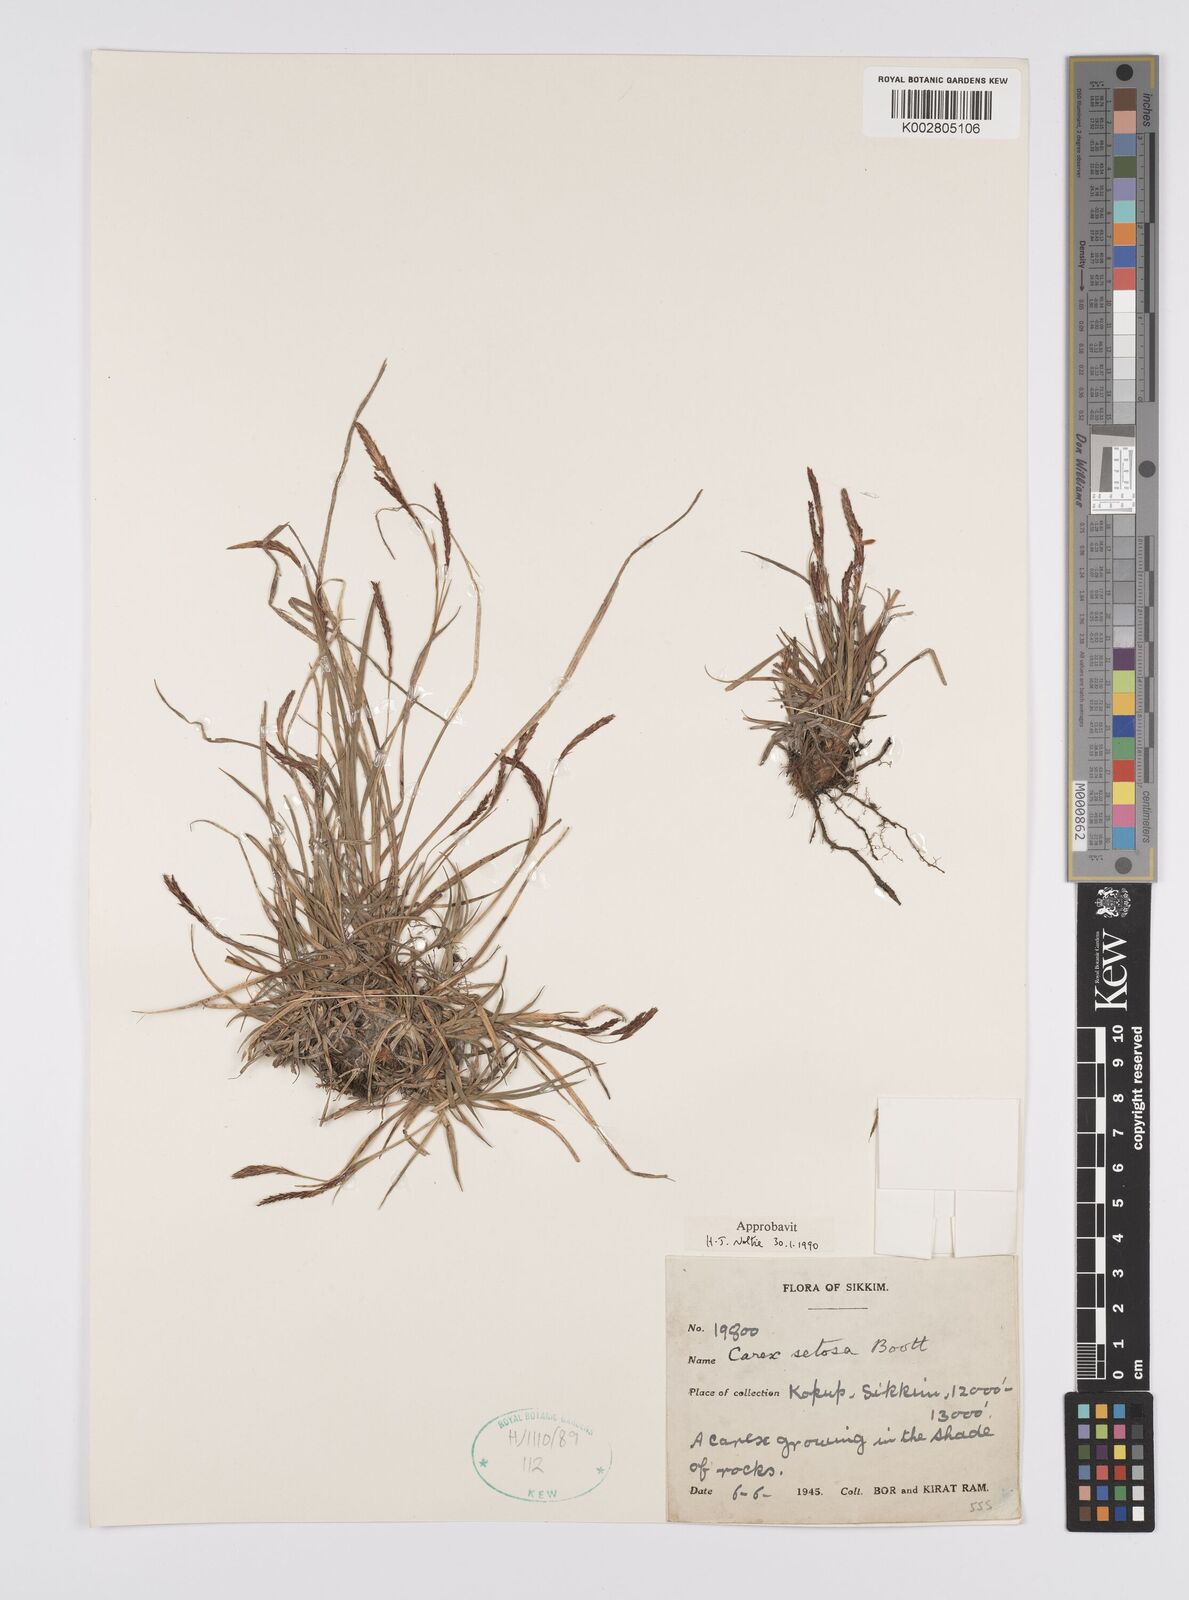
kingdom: Plantae
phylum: Tracheophyta
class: Liliopsida
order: Poales
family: Cyperaceae
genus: Carex
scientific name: Carex setosa
